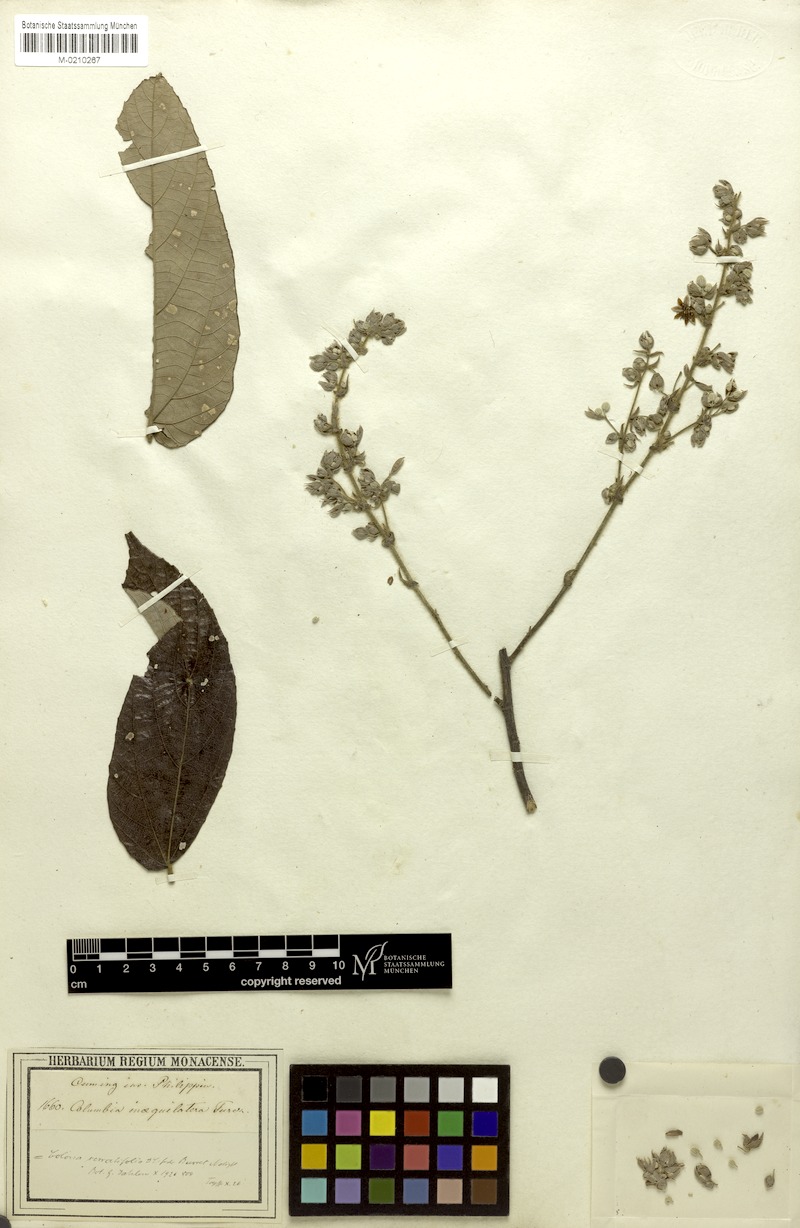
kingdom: Plantae
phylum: Tracheophyta
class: Magnoliopsida
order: Malvales
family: Malvaceae
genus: Colona
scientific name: Colona serratifolia
